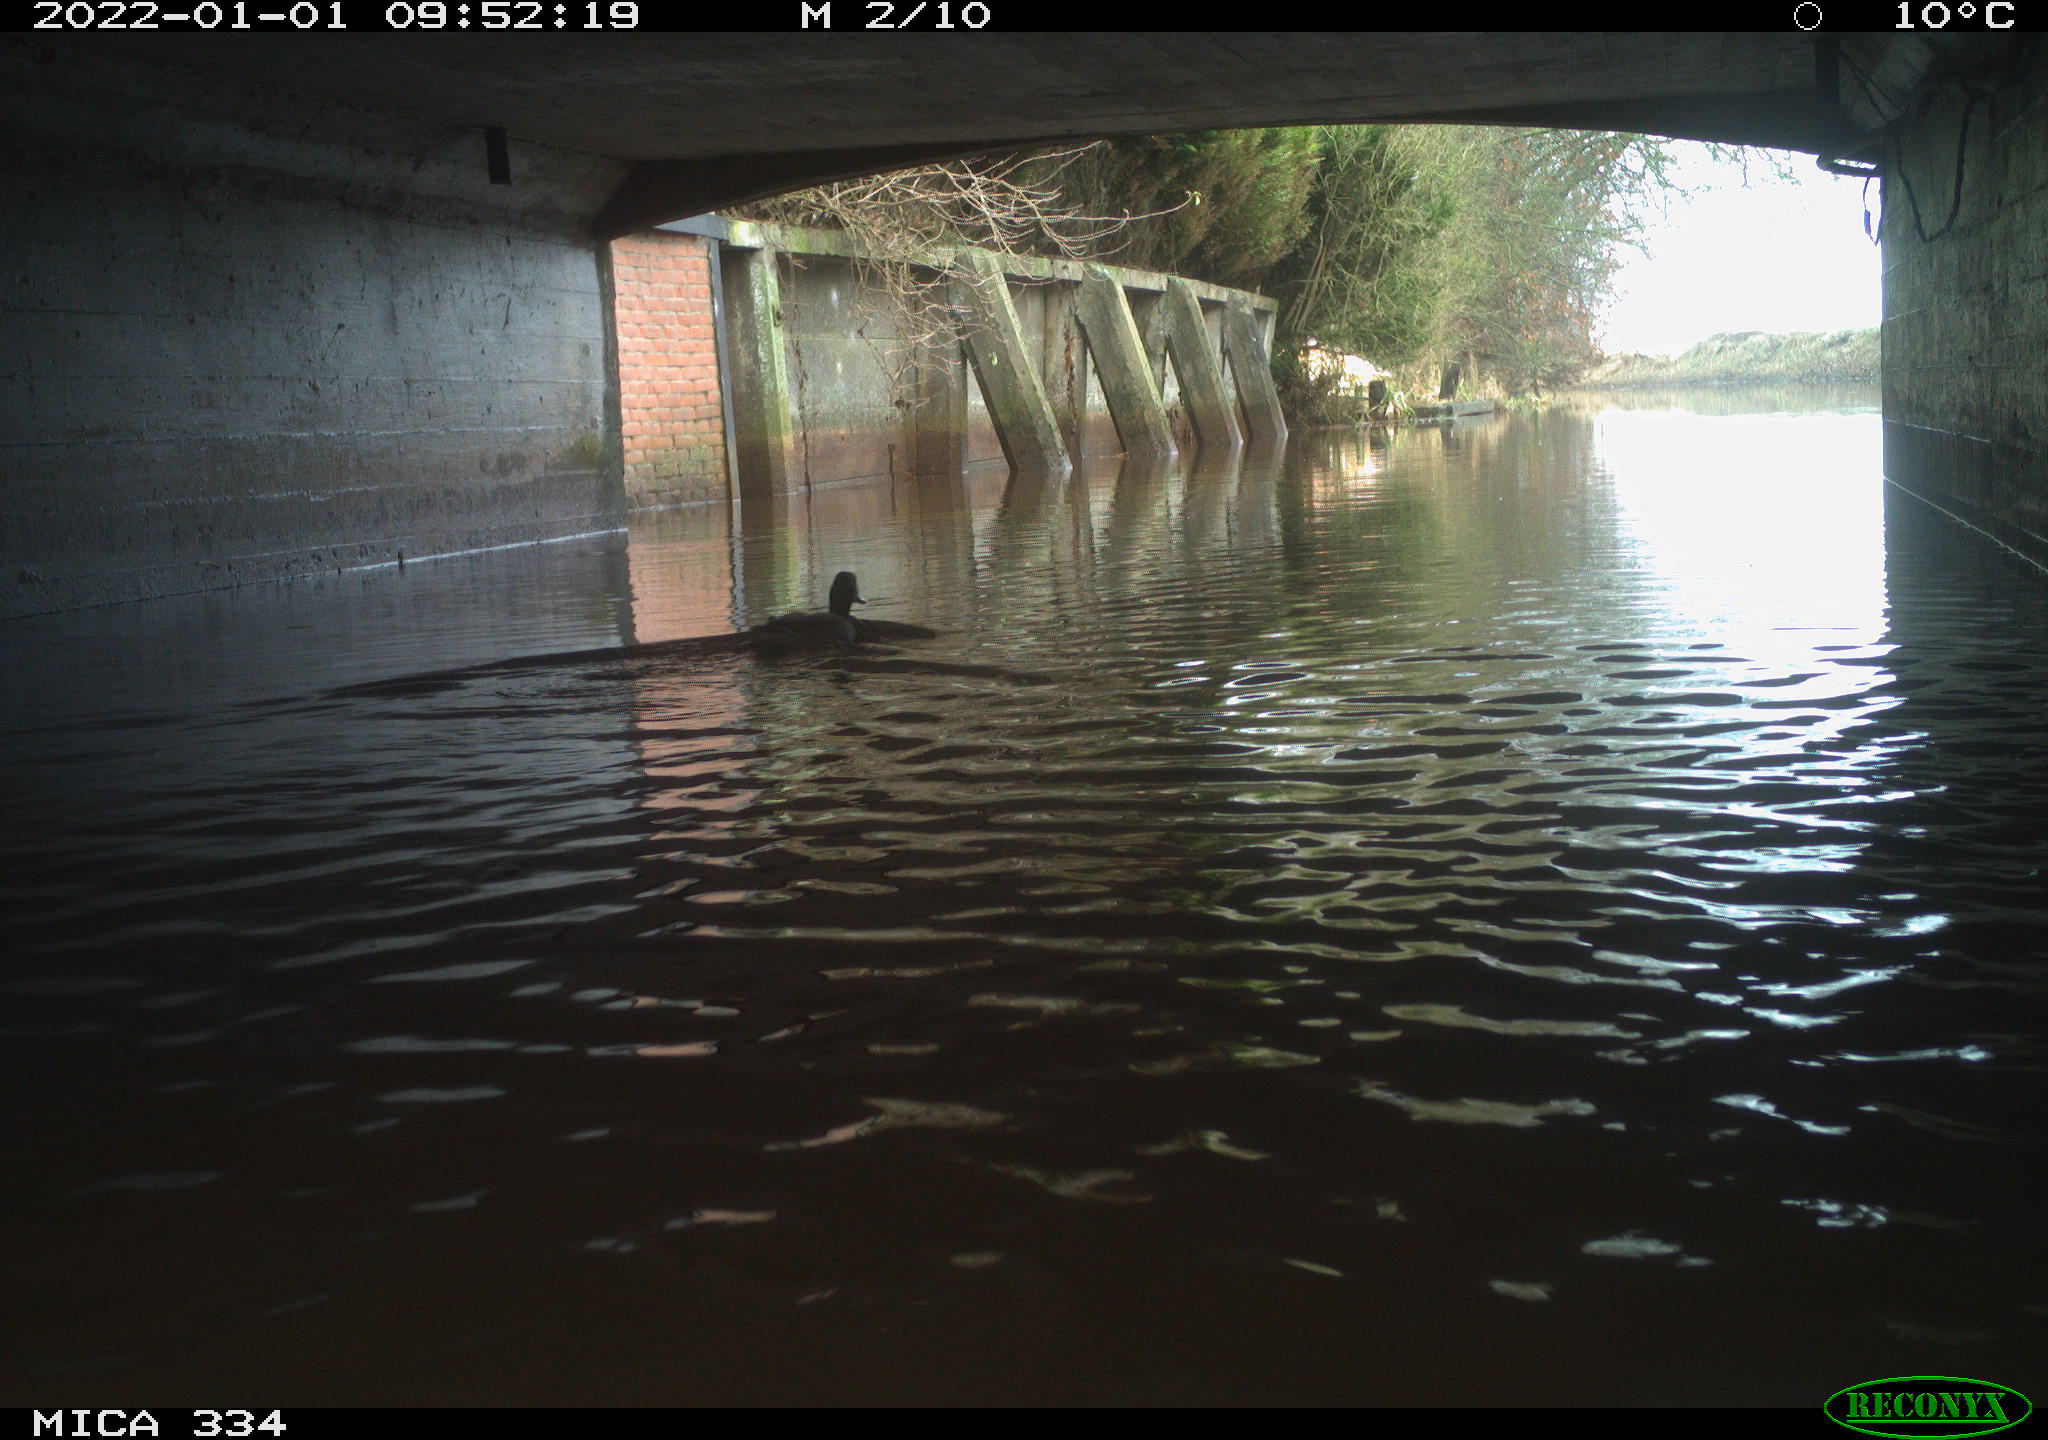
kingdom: Animalia
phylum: Chordata
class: Aves
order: Anseriformes
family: Anatidae
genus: Anas
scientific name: Anas platyrhynchos
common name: Mallard
